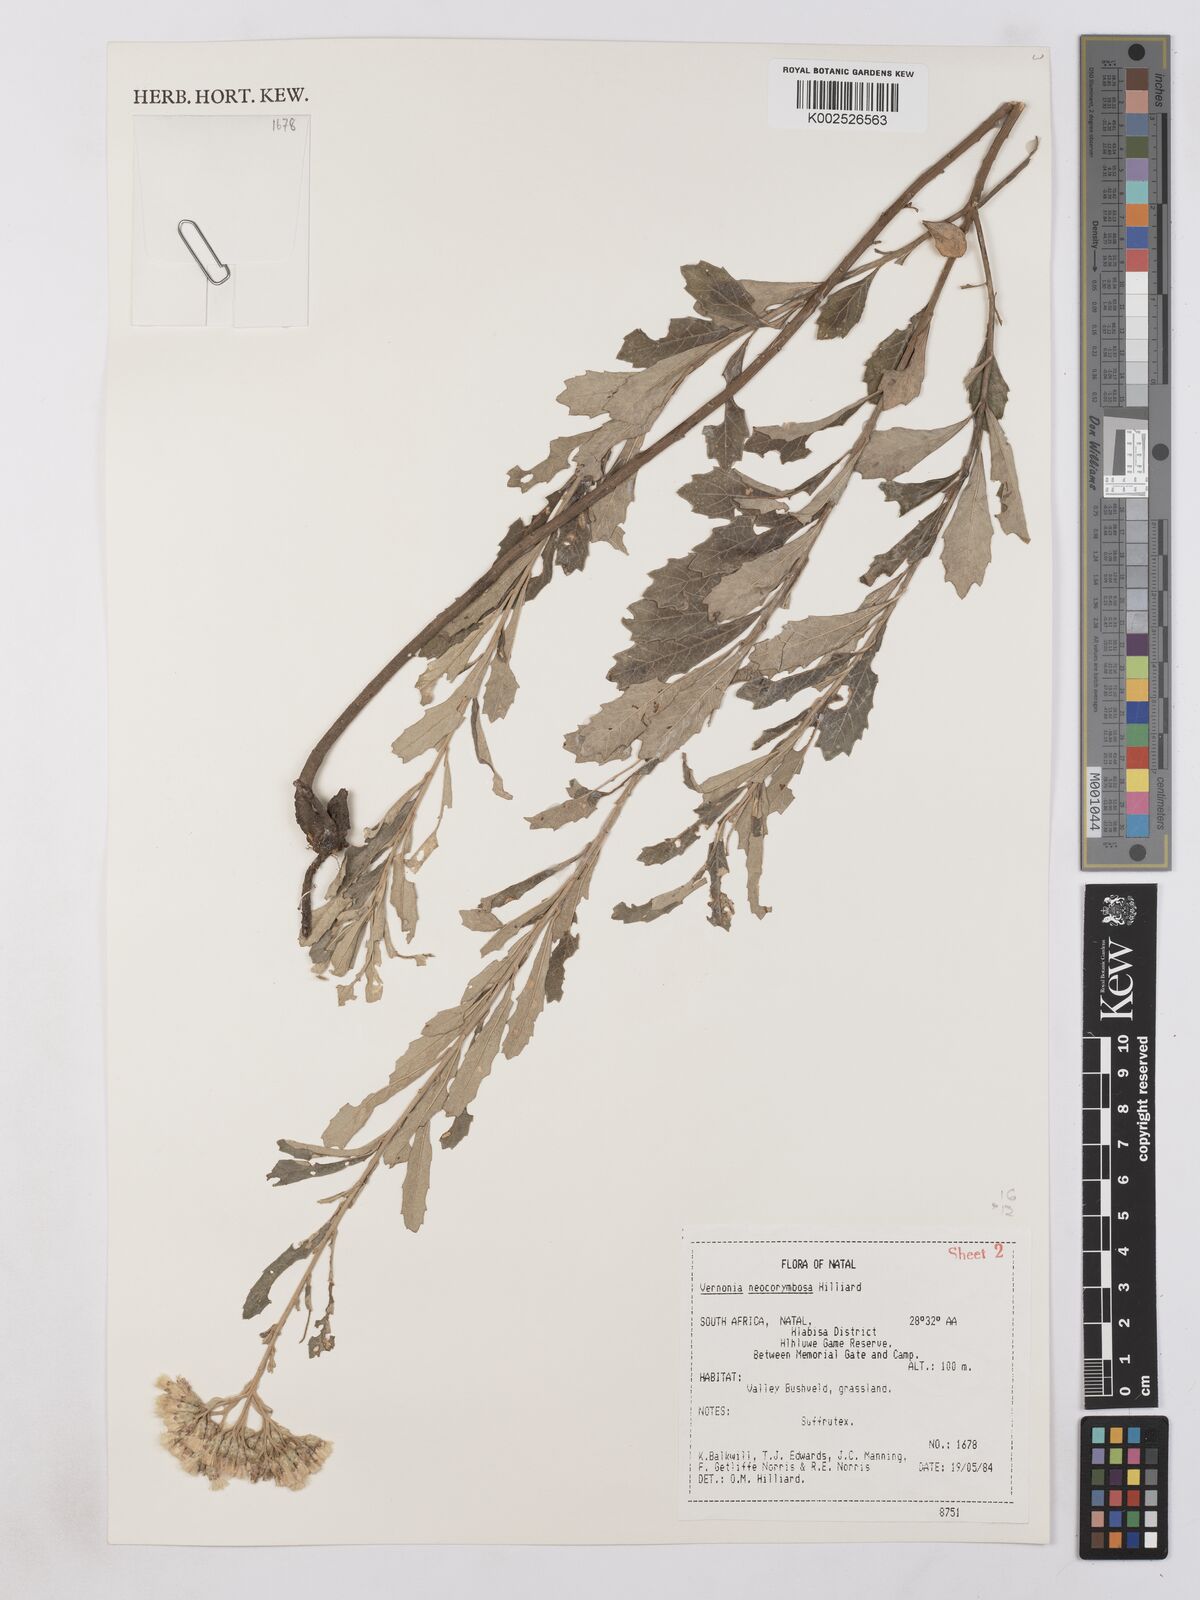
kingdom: Plantae
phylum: Tracheophyta
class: Magnoliopsida
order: Asterales
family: Asteraceae
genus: Gymnanthemum
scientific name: Gymnanthemum corymbosum
